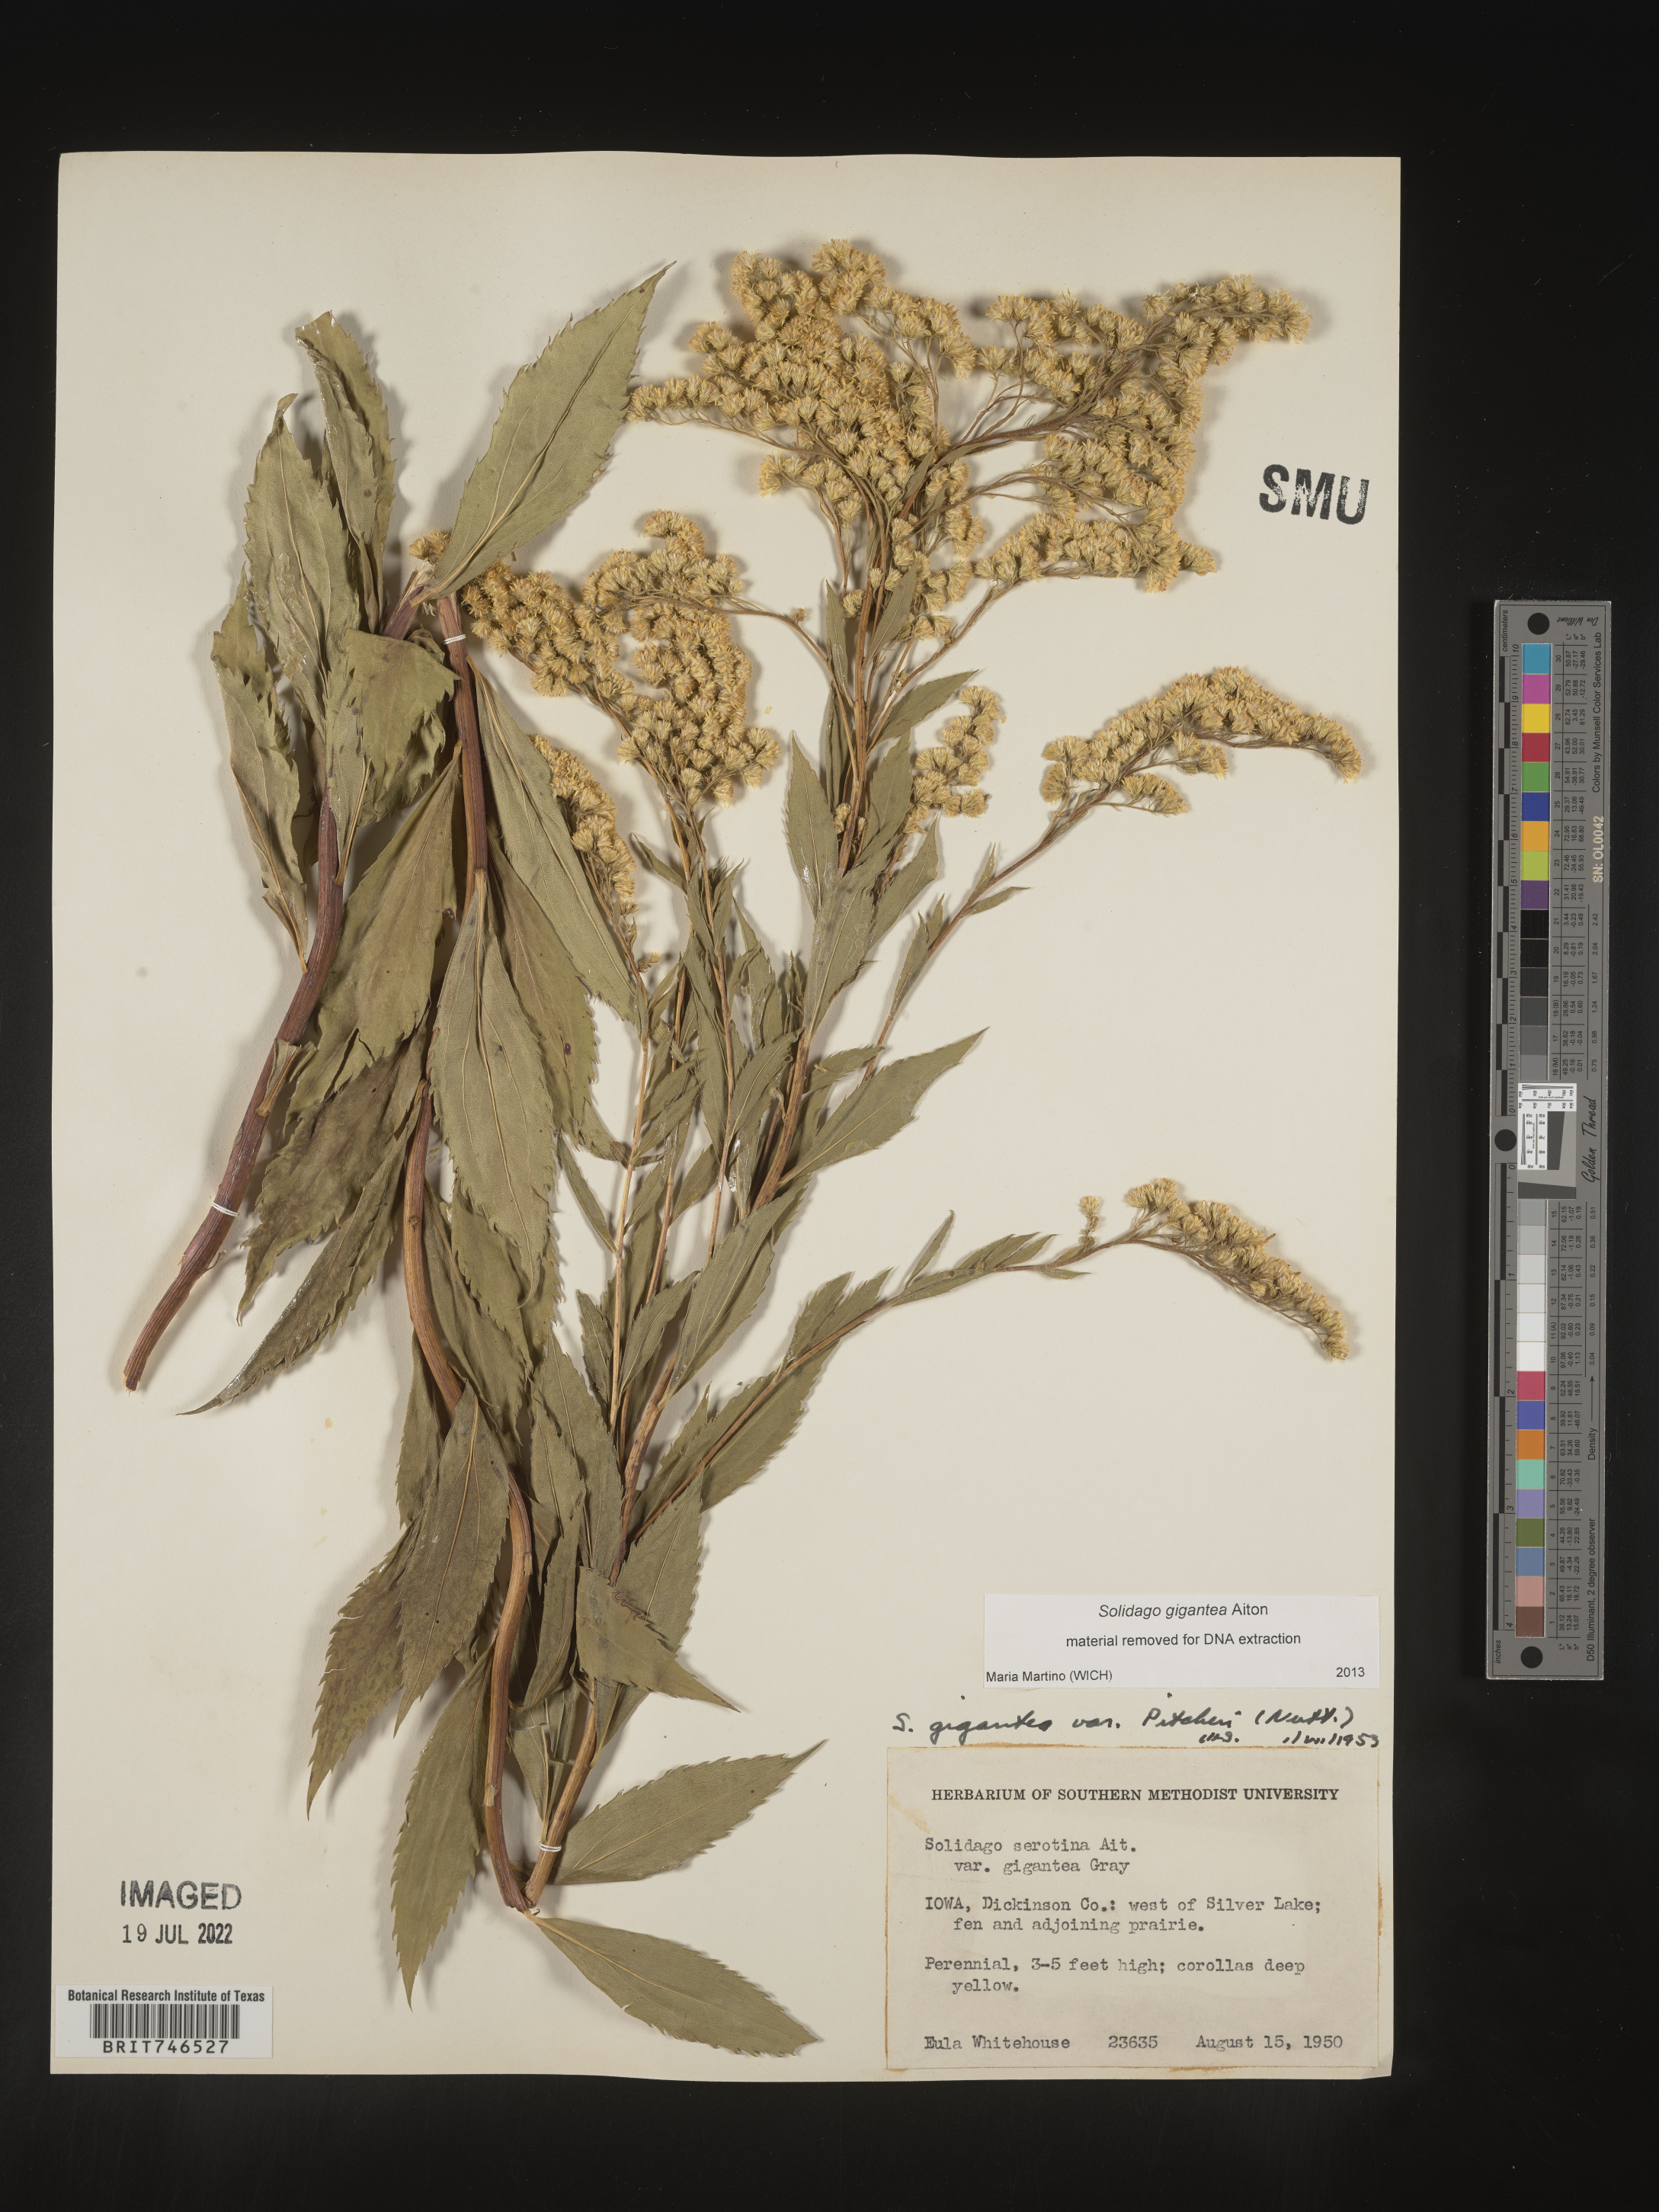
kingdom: Plantae
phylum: Tracheophyta
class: Magnoliopsida
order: Asterales
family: Asteraceae
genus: Solidago
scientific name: Solidago gigantea
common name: Giant goldenrod
